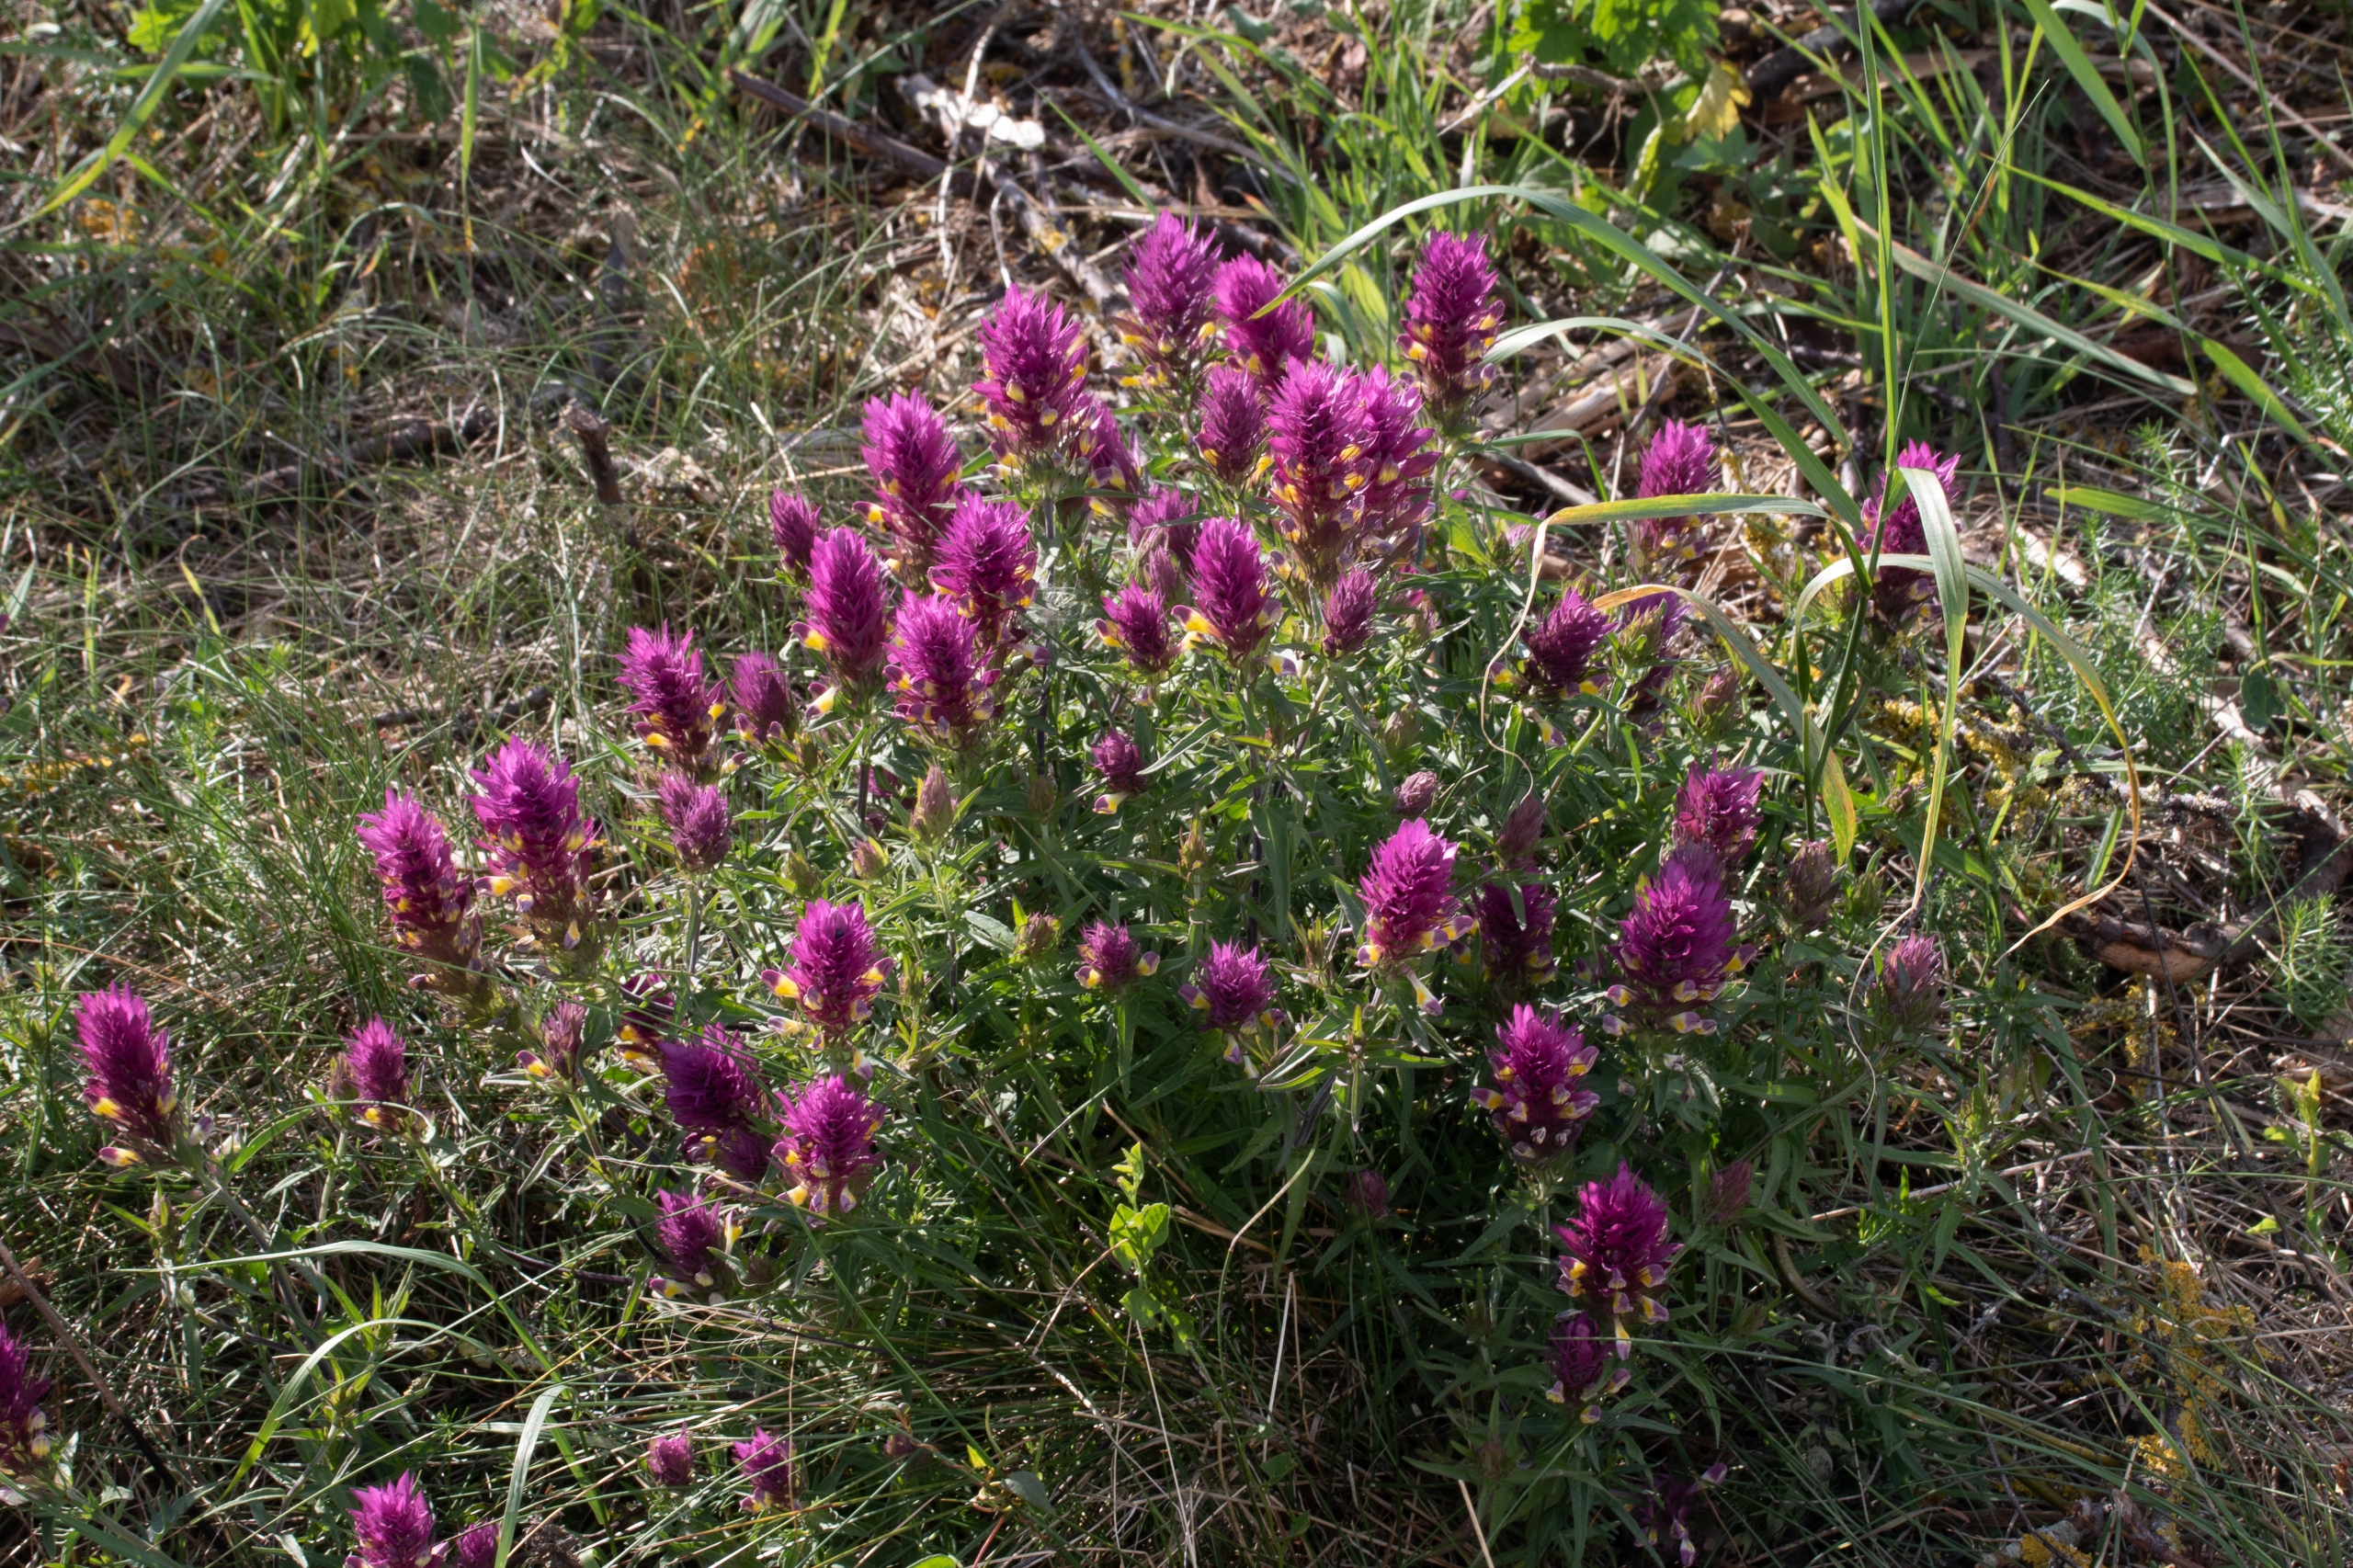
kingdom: Plantae
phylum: Tracheophyta
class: Magnoliopsida
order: Lamiales
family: Orobanchaceae
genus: Melampyrum
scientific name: Melampyrum arvense
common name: Ager-kohvede
